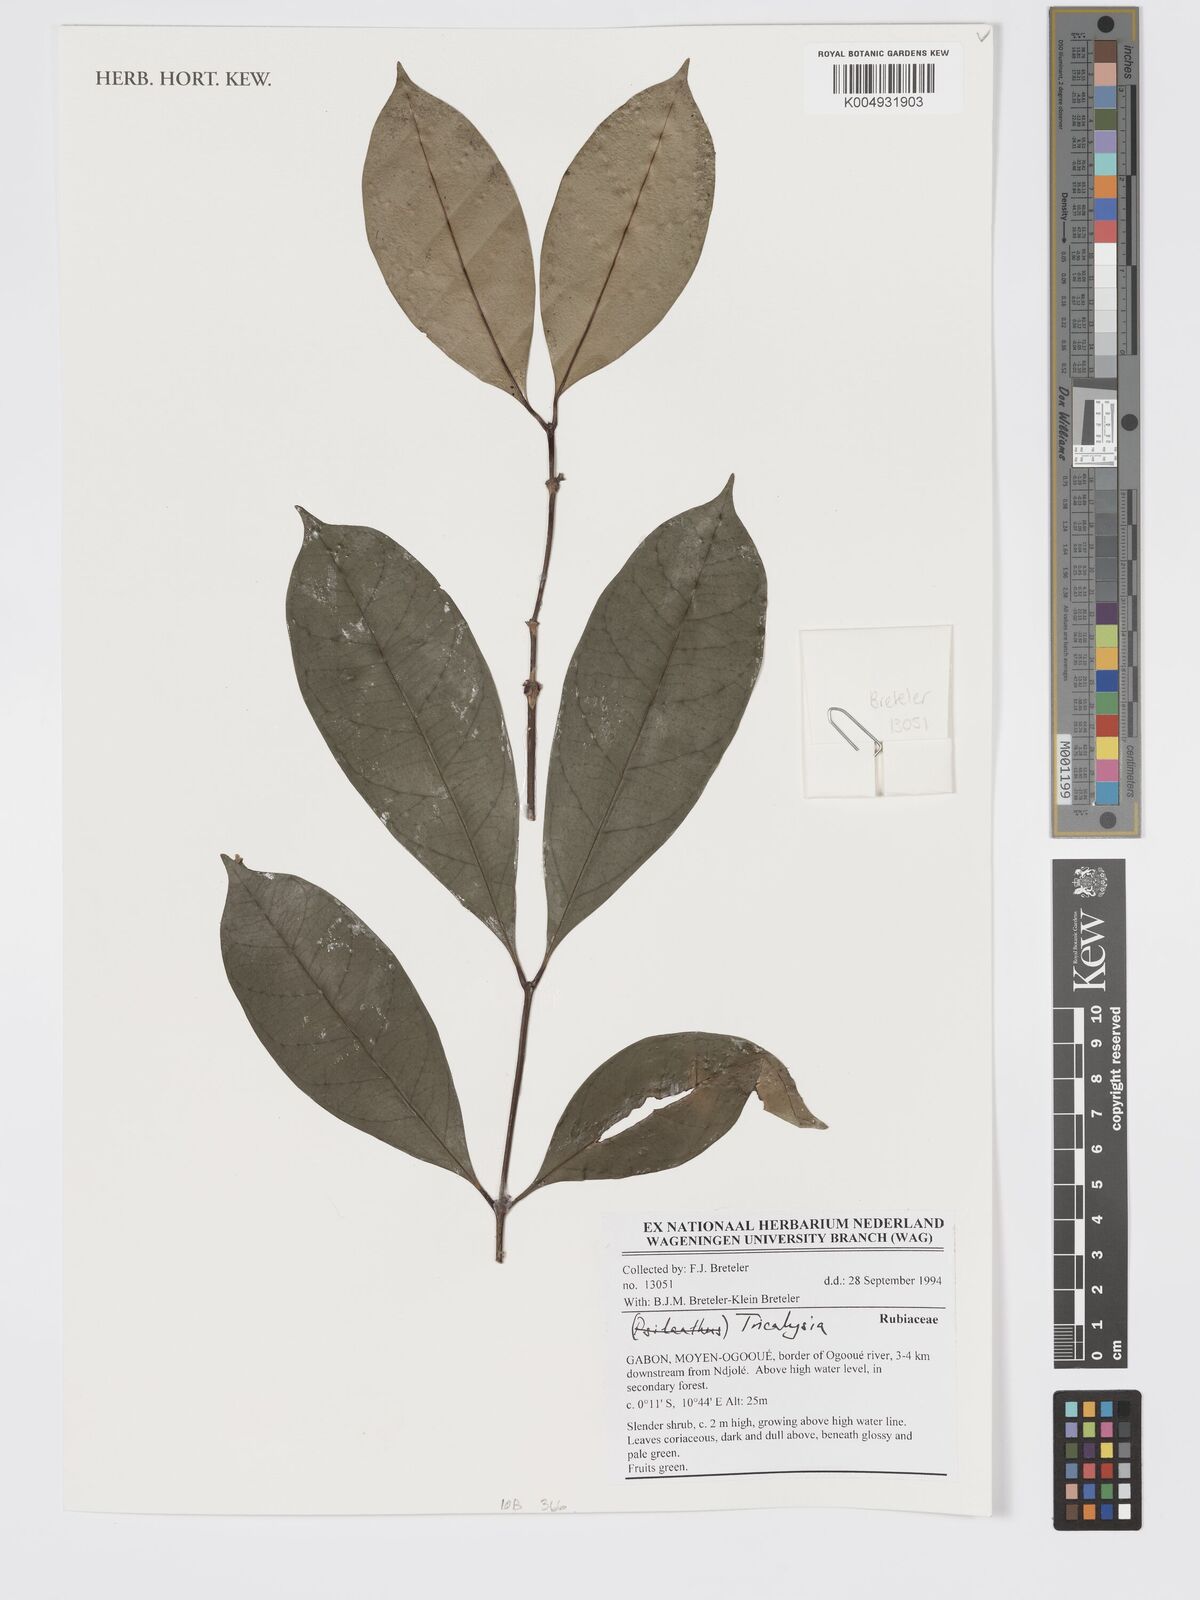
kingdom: Plantae
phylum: Tracheophyta
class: Magnoliopsida
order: Gentianales
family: Rubiaceae
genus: Tricalysia
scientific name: Tricalysia
